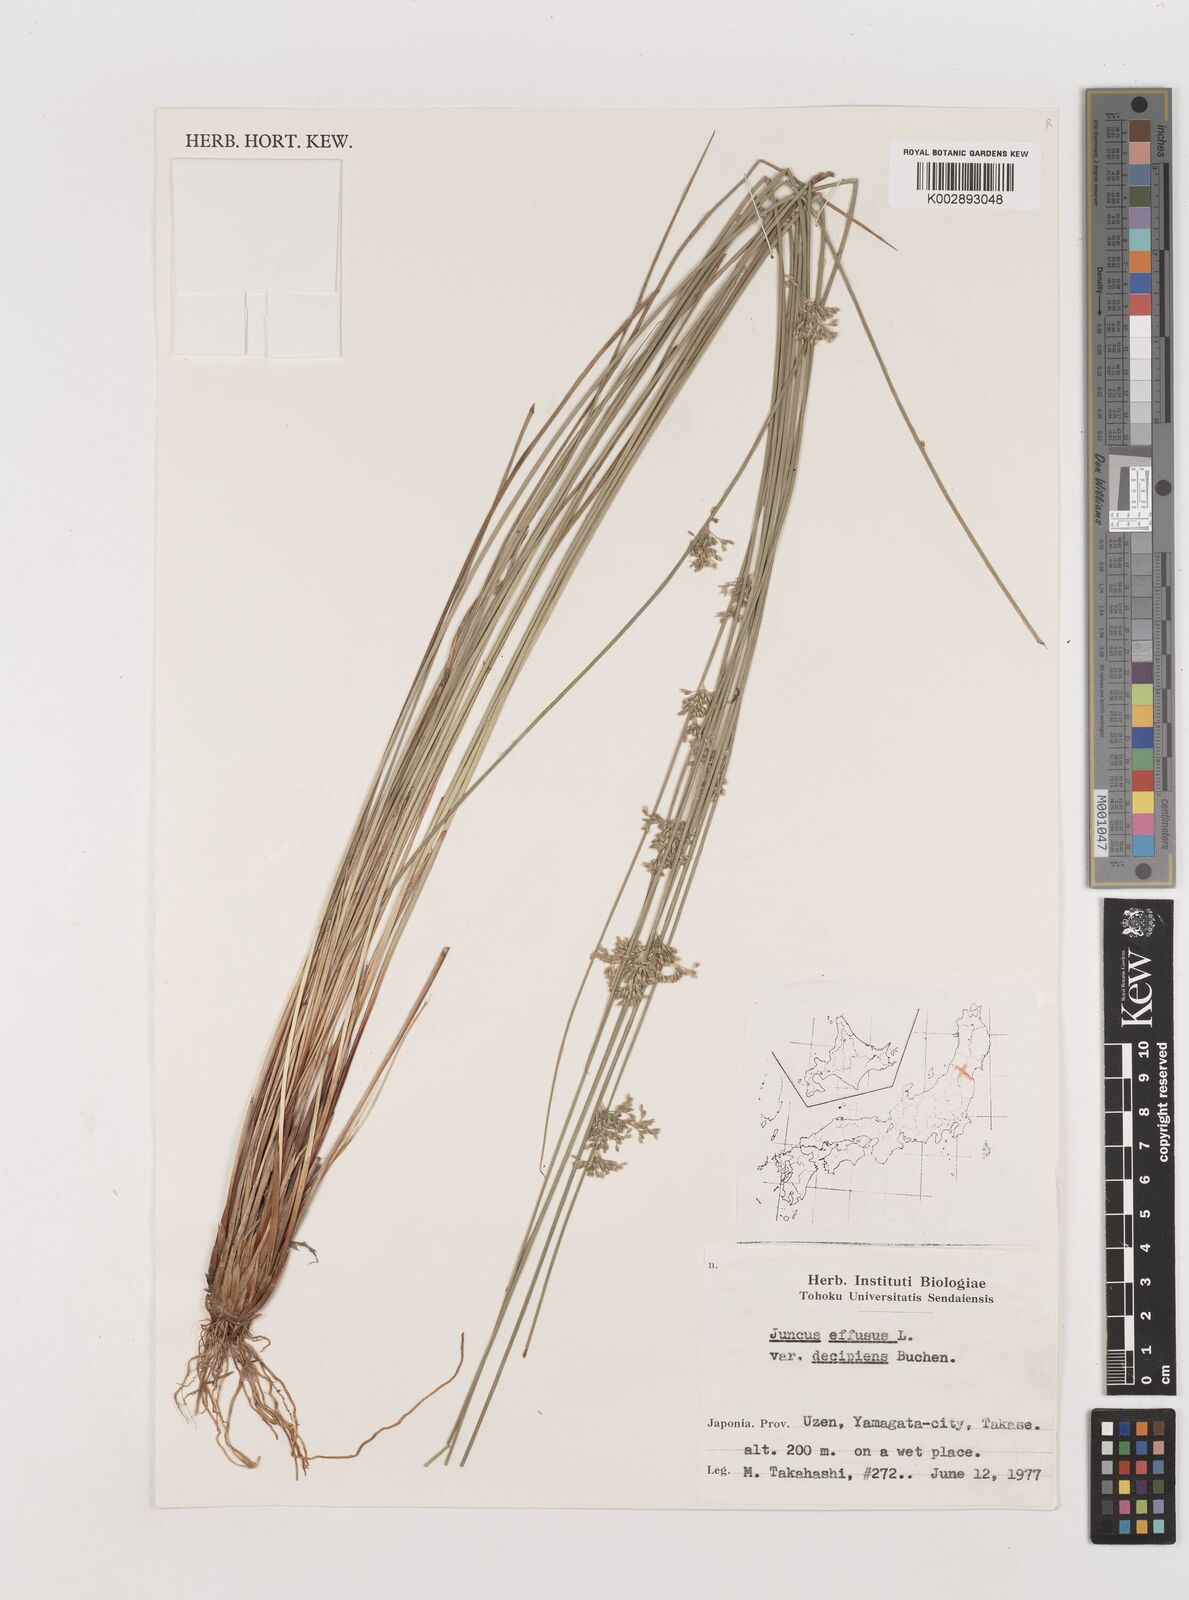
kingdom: Plantae
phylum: Tracheophyta
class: Liliopsida
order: Poales
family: Juncaceae
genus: Juncus
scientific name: Juncus decipiens
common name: Lamp rush
